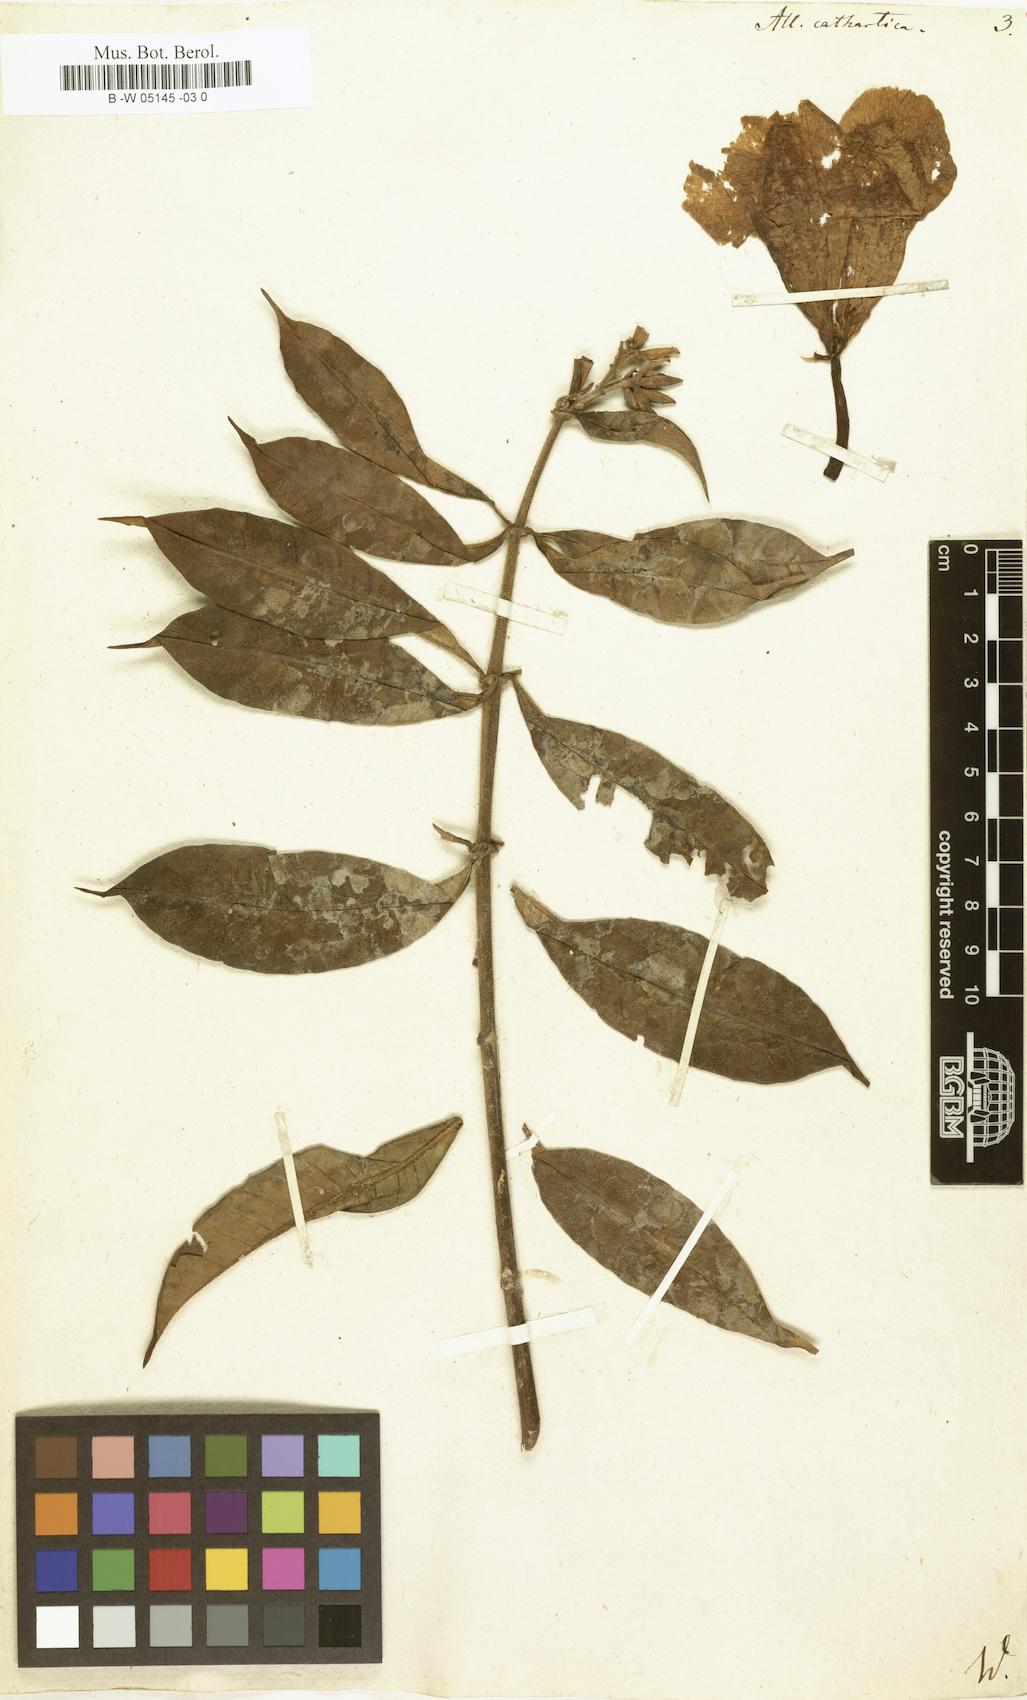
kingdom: Plantae
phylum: Tracheophyta
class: Magnoliopsida
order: Gentianales
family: Apocynaceae
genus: Allamanda
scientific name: Allamanda cathartica
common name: Golden trumpet
